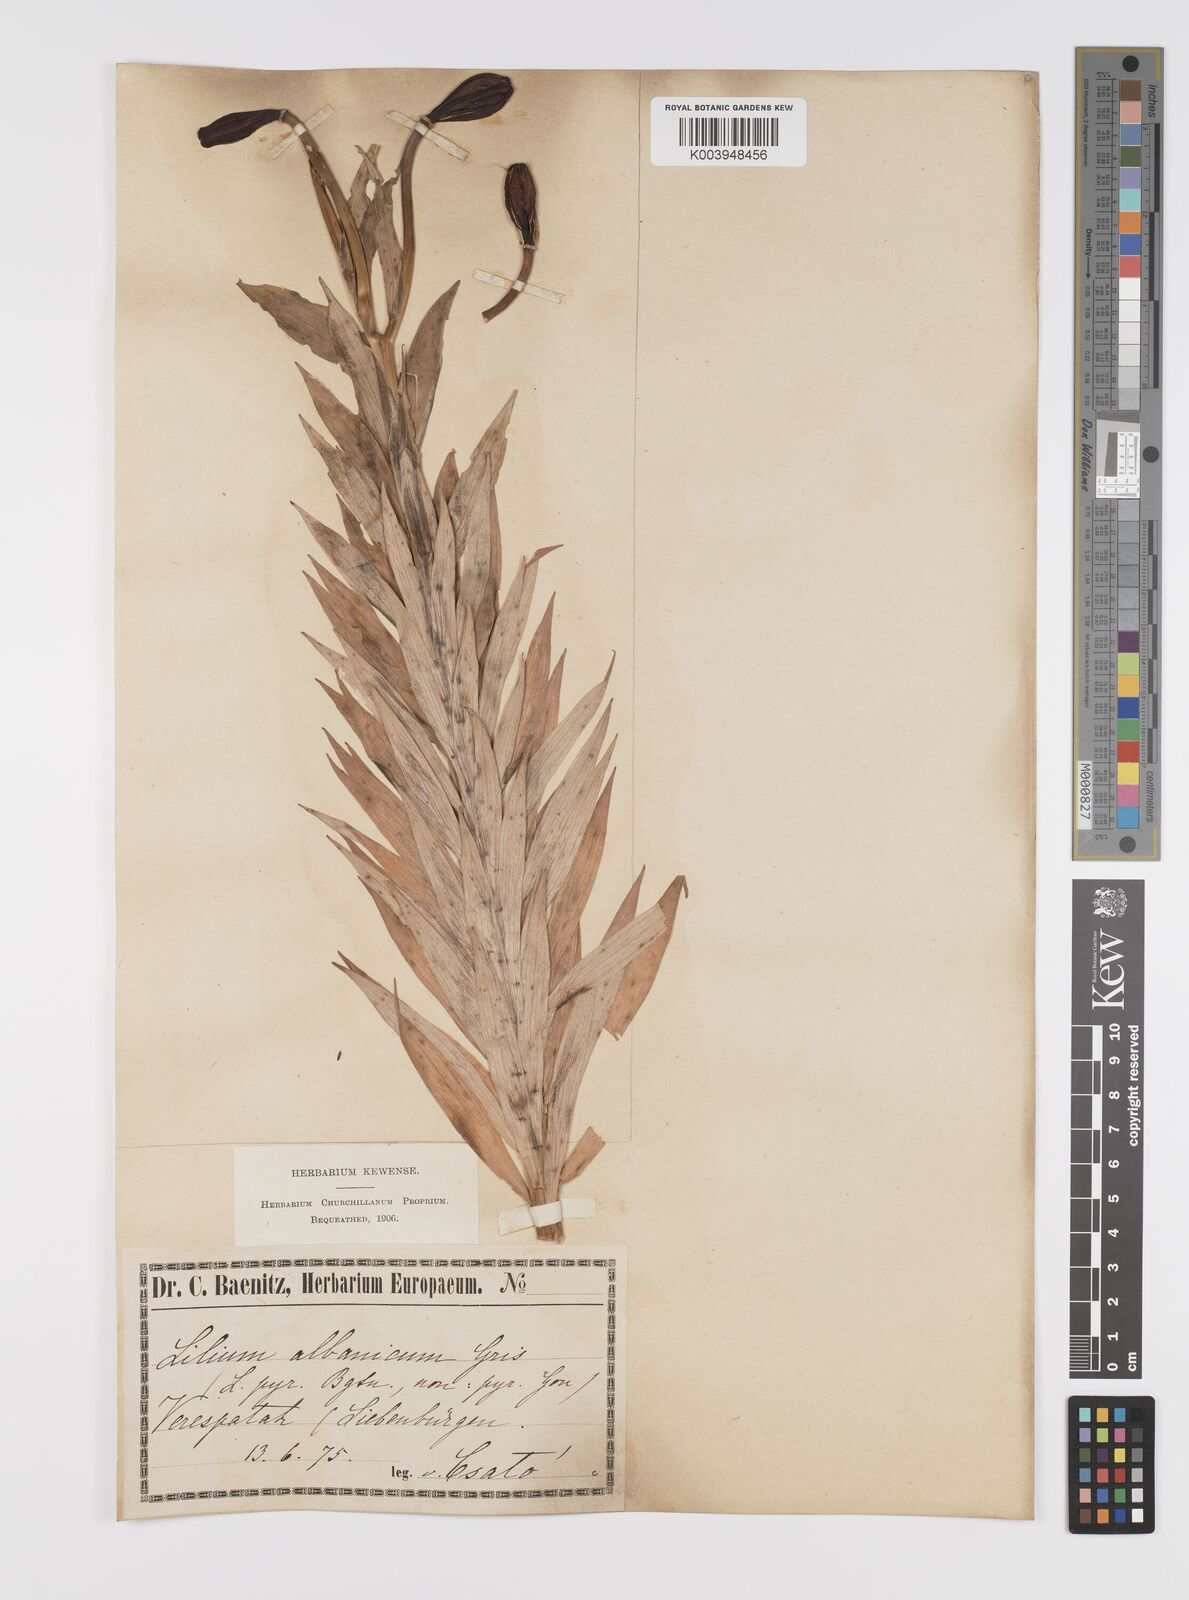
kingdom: Plantae
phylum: Tracheophyta
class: Liliopsida
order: Liliales
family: Liliaceae
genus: Lilium
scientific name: Lilium jankae
